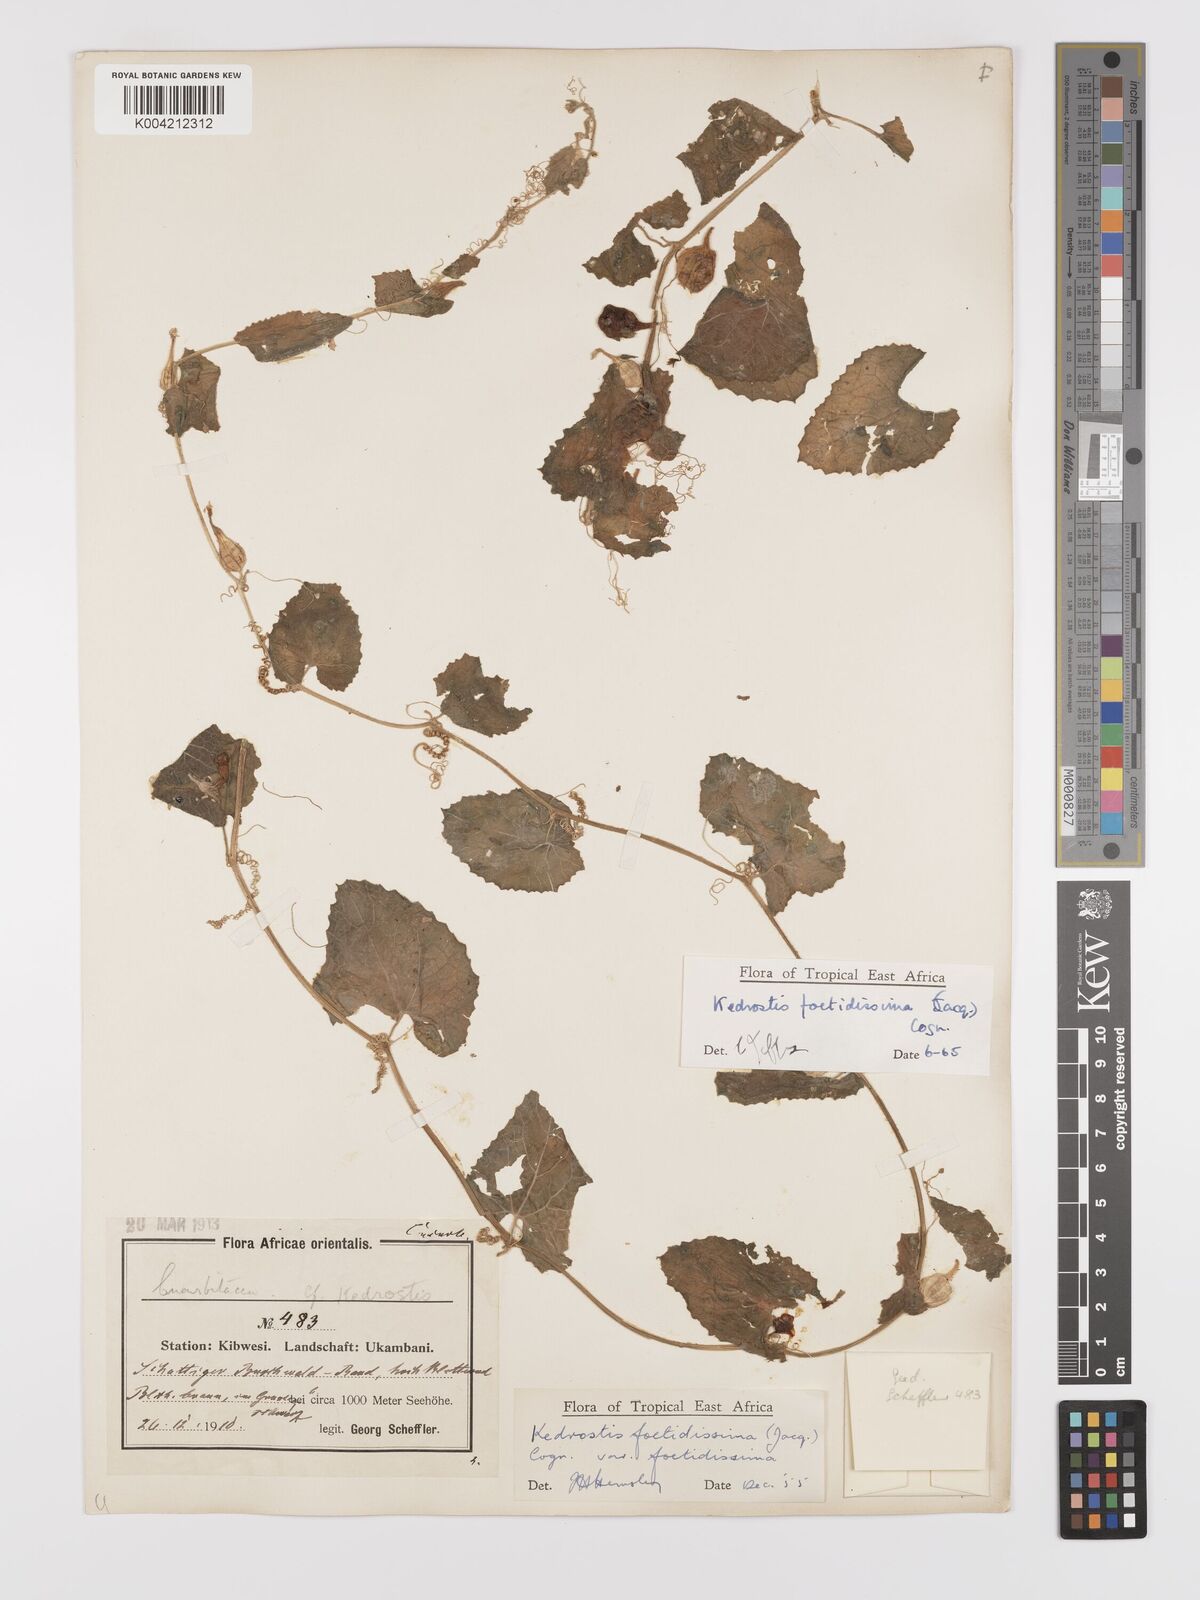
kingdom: Plantae
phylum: Tracheophyta
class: Magnoliopsida
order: Cucurbitales
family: Cucurbitaceae
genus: Kedrostis
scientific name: Kedrostis foetidissima
